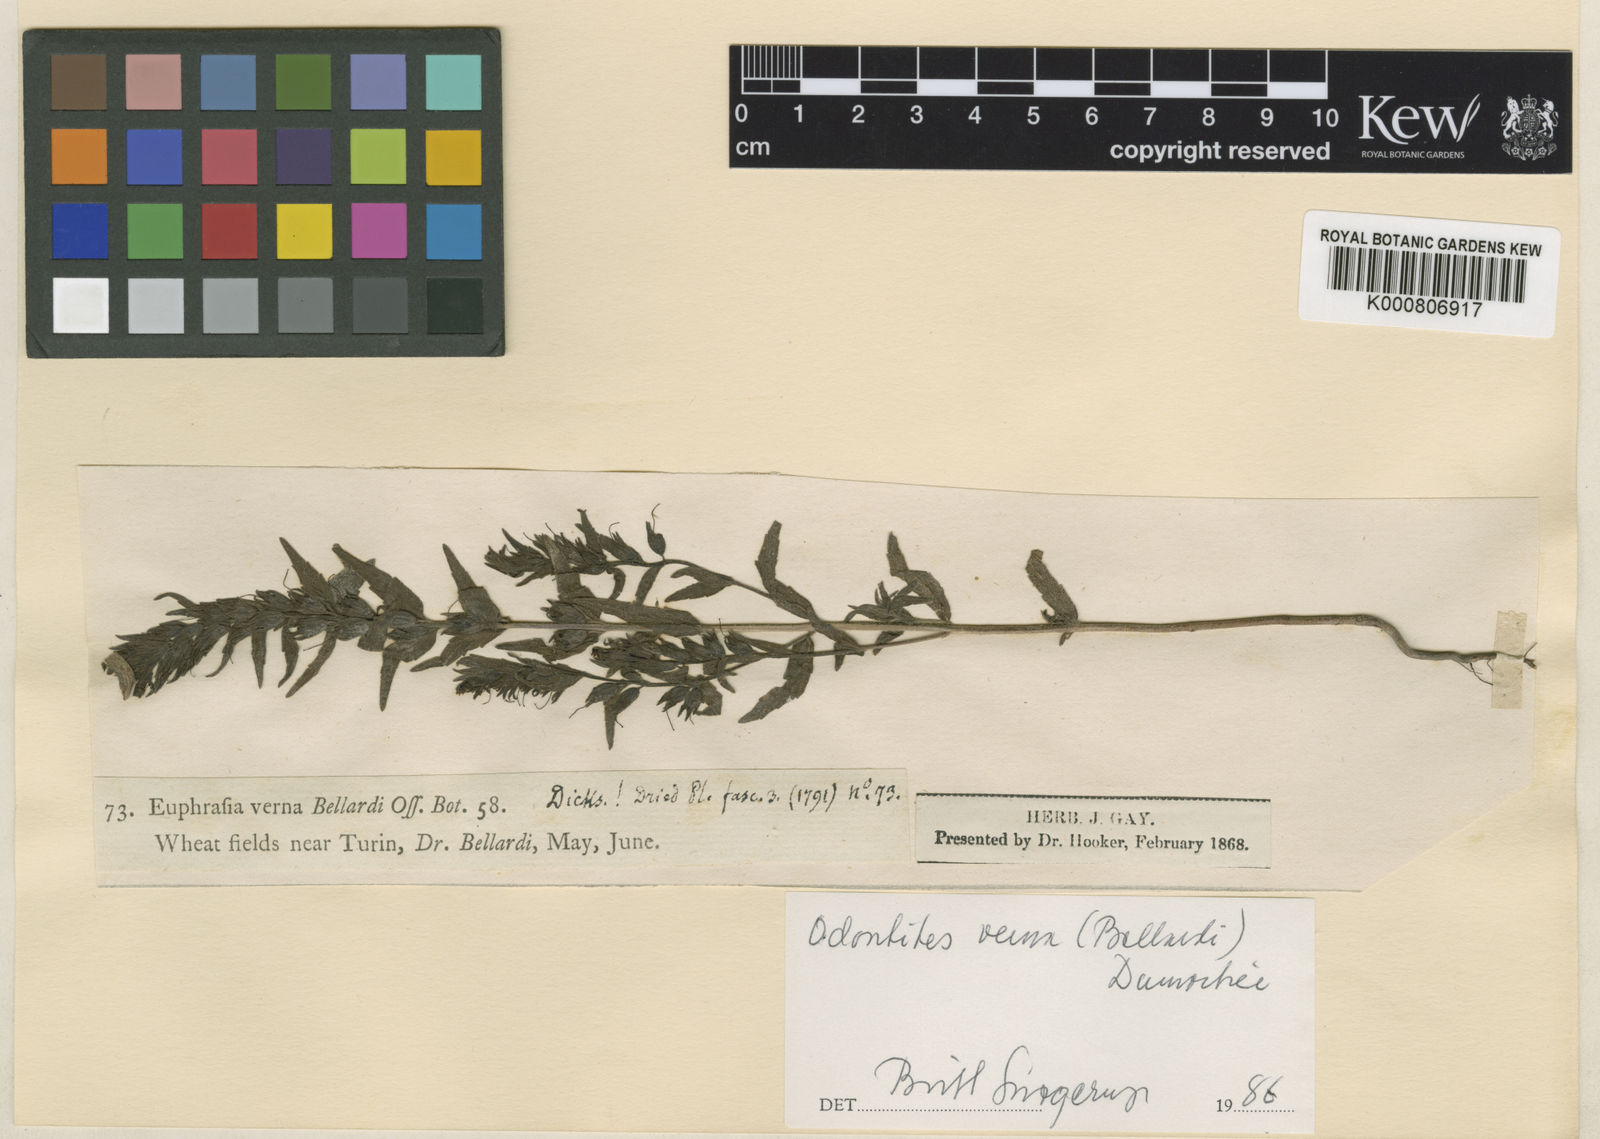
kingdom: Plantae
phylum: Tracheophyta
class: Magnoliopsida
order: Lamiales
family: Orobanchaceae
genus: Odontites
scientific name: Odontites vernus
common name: Red bartsia
